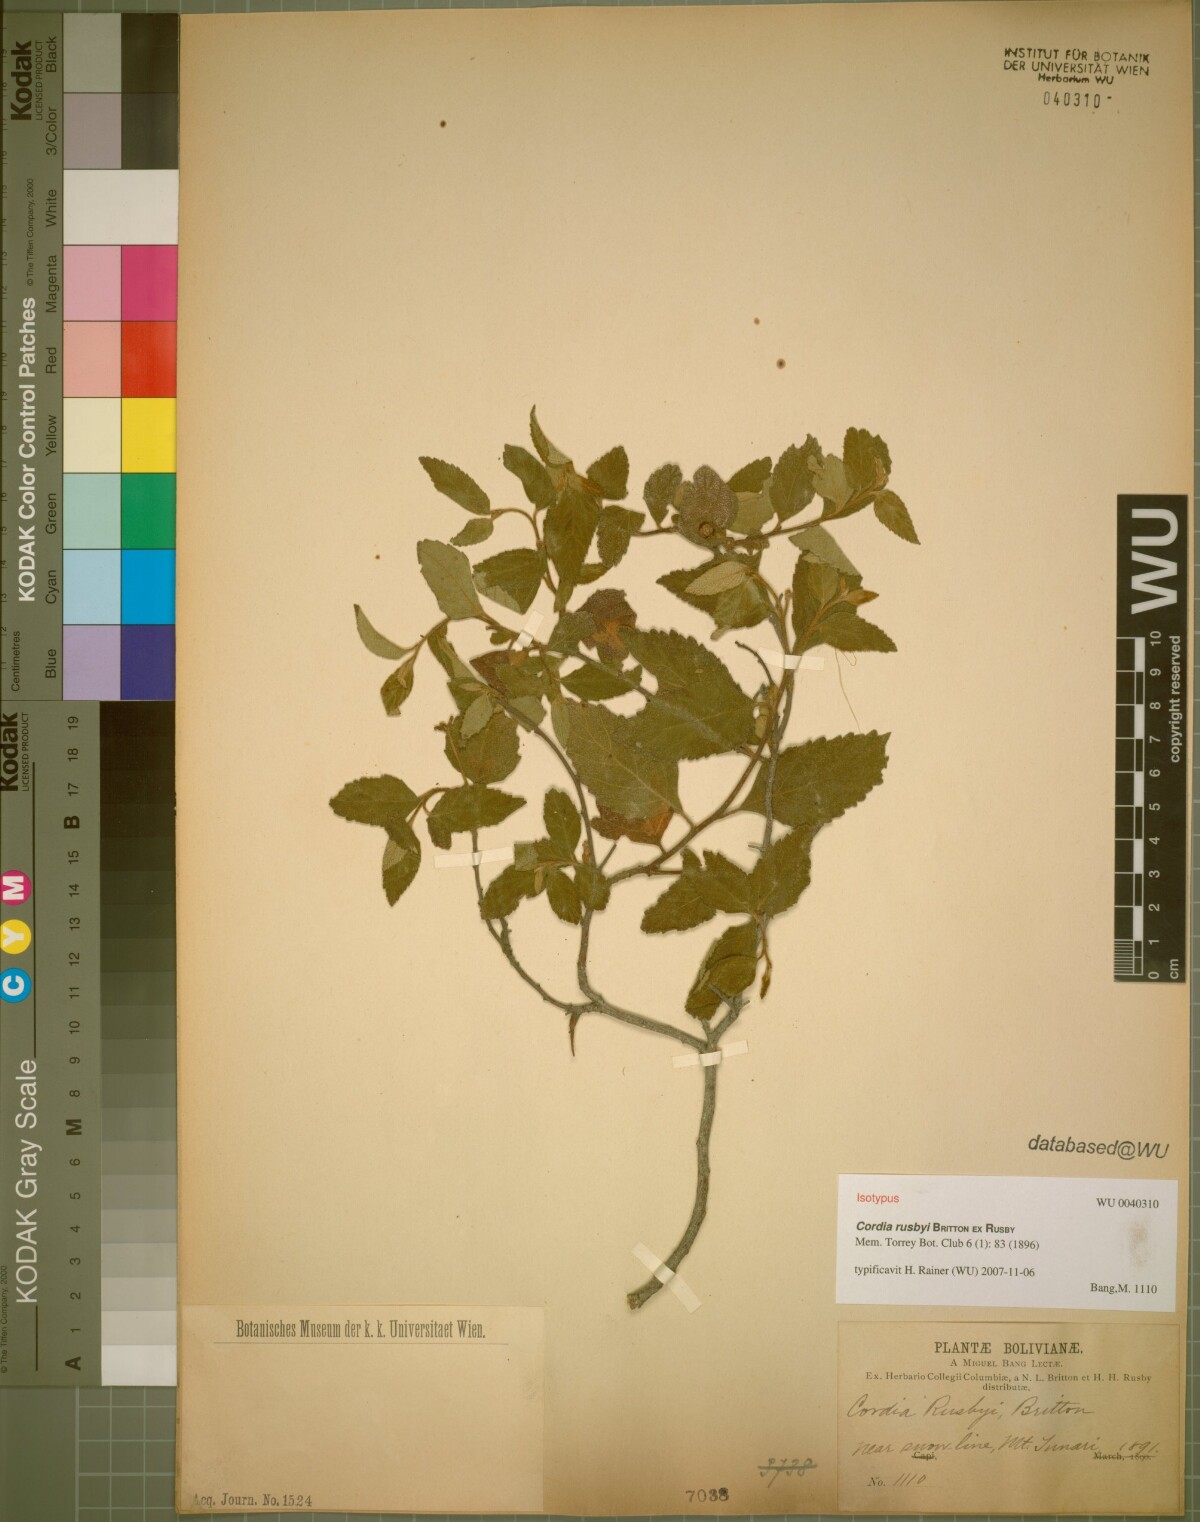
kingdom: Plantae
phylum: Tracheophyta
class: Magnoliopsida
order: Boraginales
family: Cordiaceae
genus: Cordia
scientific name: Cordia alliodora
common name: Spanish elm
